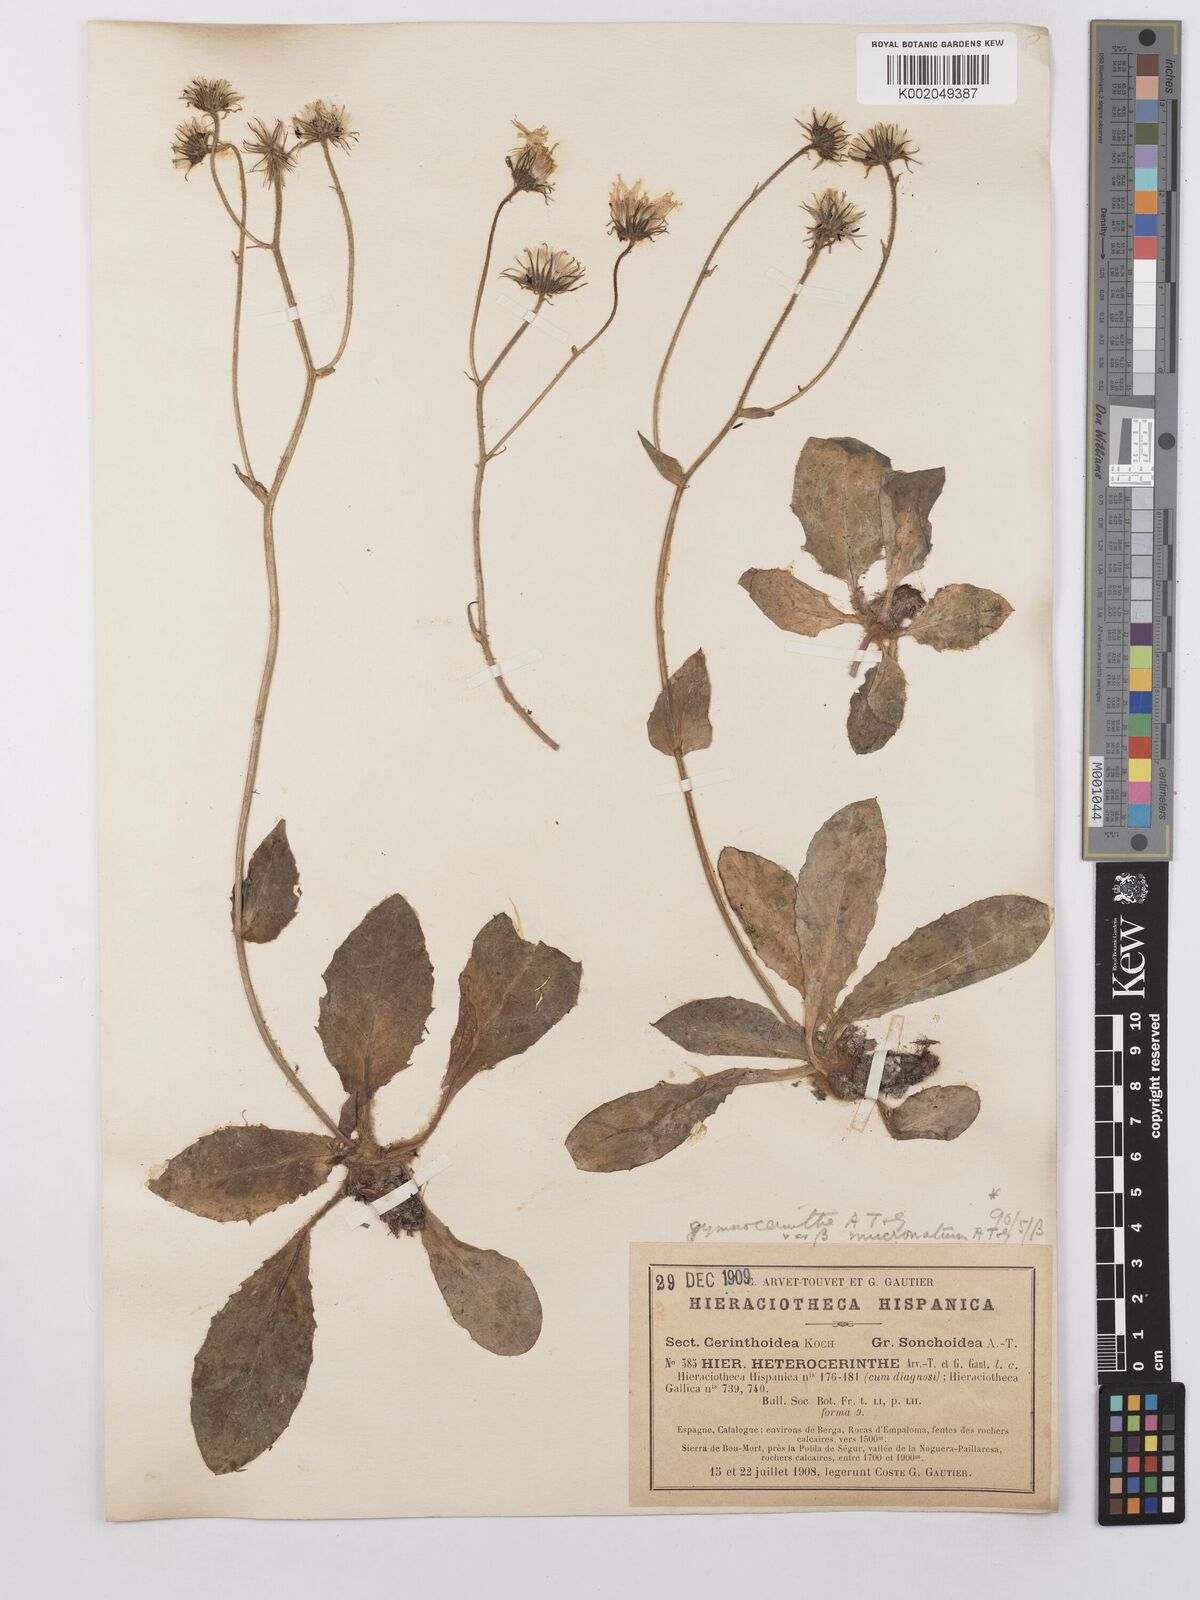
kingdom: Plantae
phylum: Tracheophyta
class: Magnoliopsida
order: Asterales
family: Asteraceae
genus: Hieracium
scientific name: Hieracium cerinthoides
